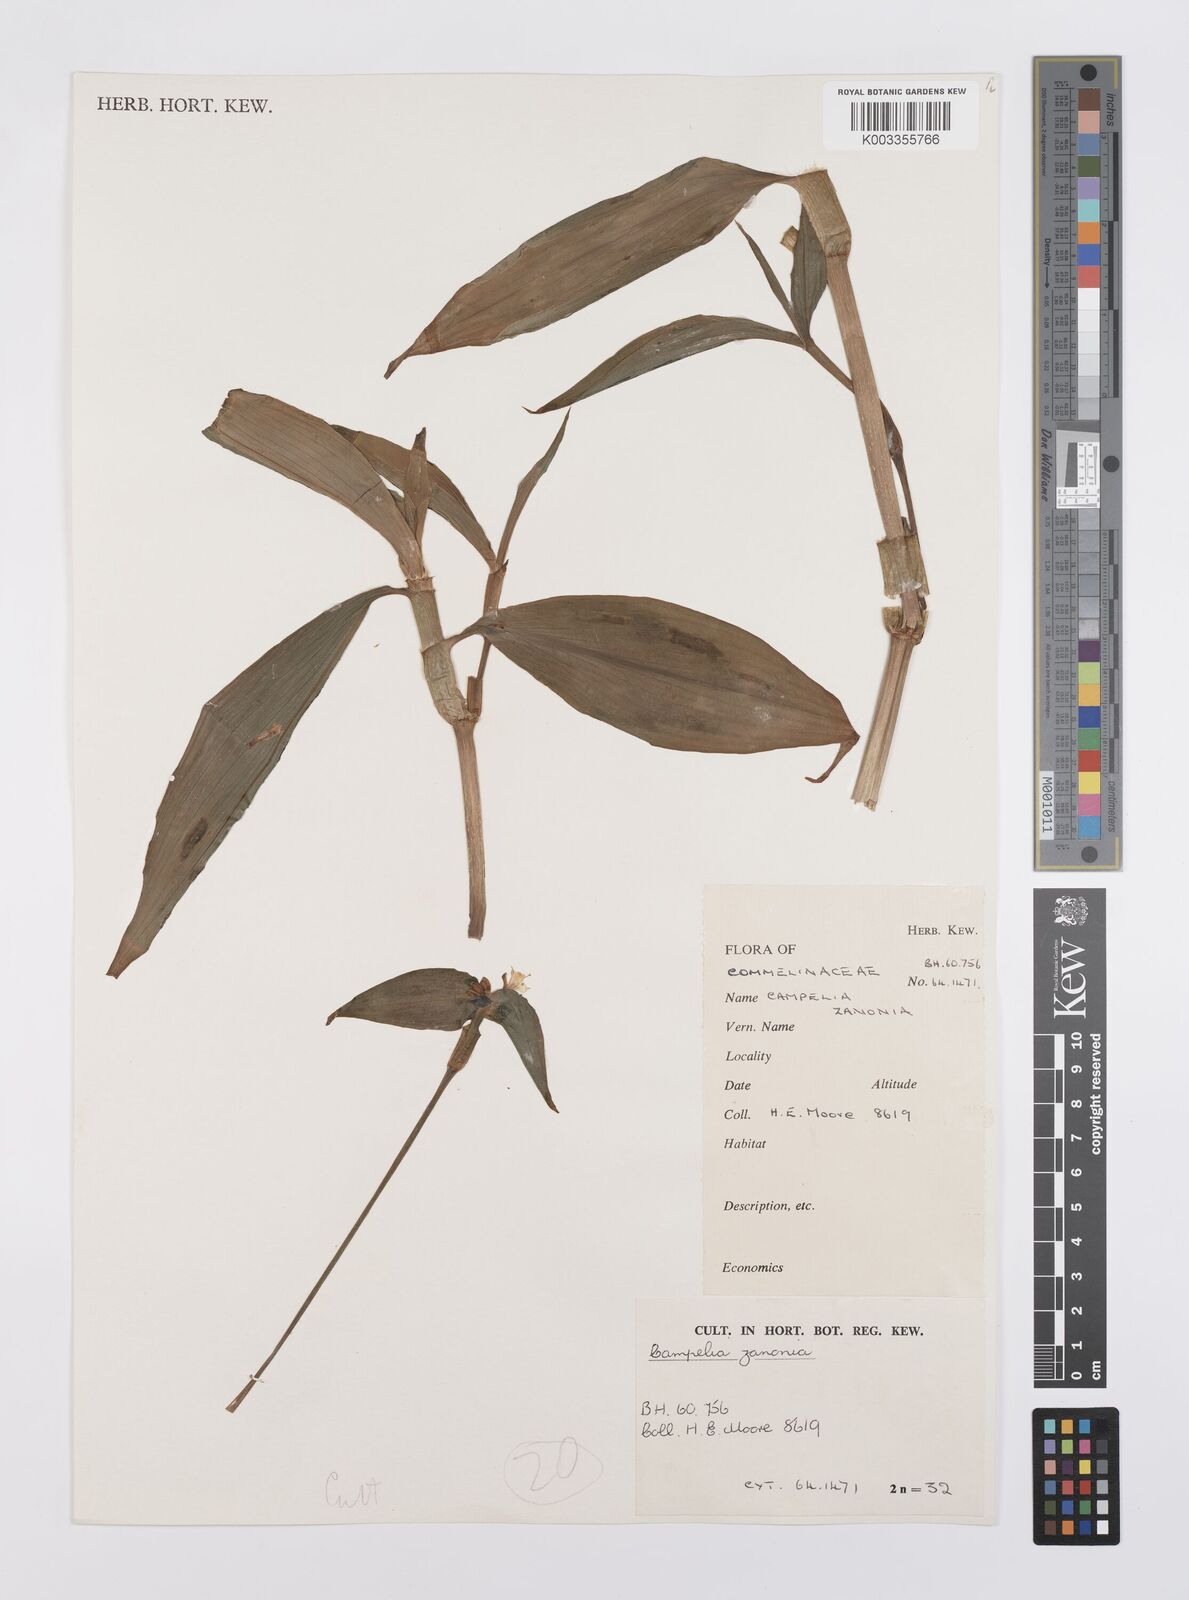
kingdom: Plantae
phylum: Tracheophyta
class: Liliopsida
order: Commelinales
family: Commelinaceae
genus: Tradescantia
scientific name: Tradescantia zanonia
